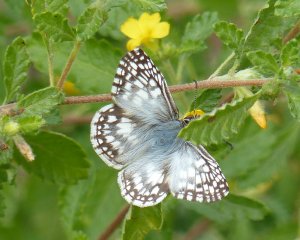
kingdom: Animalia
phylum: Arthropoda
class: Insecta
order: Lepidoptera
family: Hesperiidae
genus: Pyrgus
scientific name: Pyrgus oileus
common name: Tropical Checkered-Skipper
